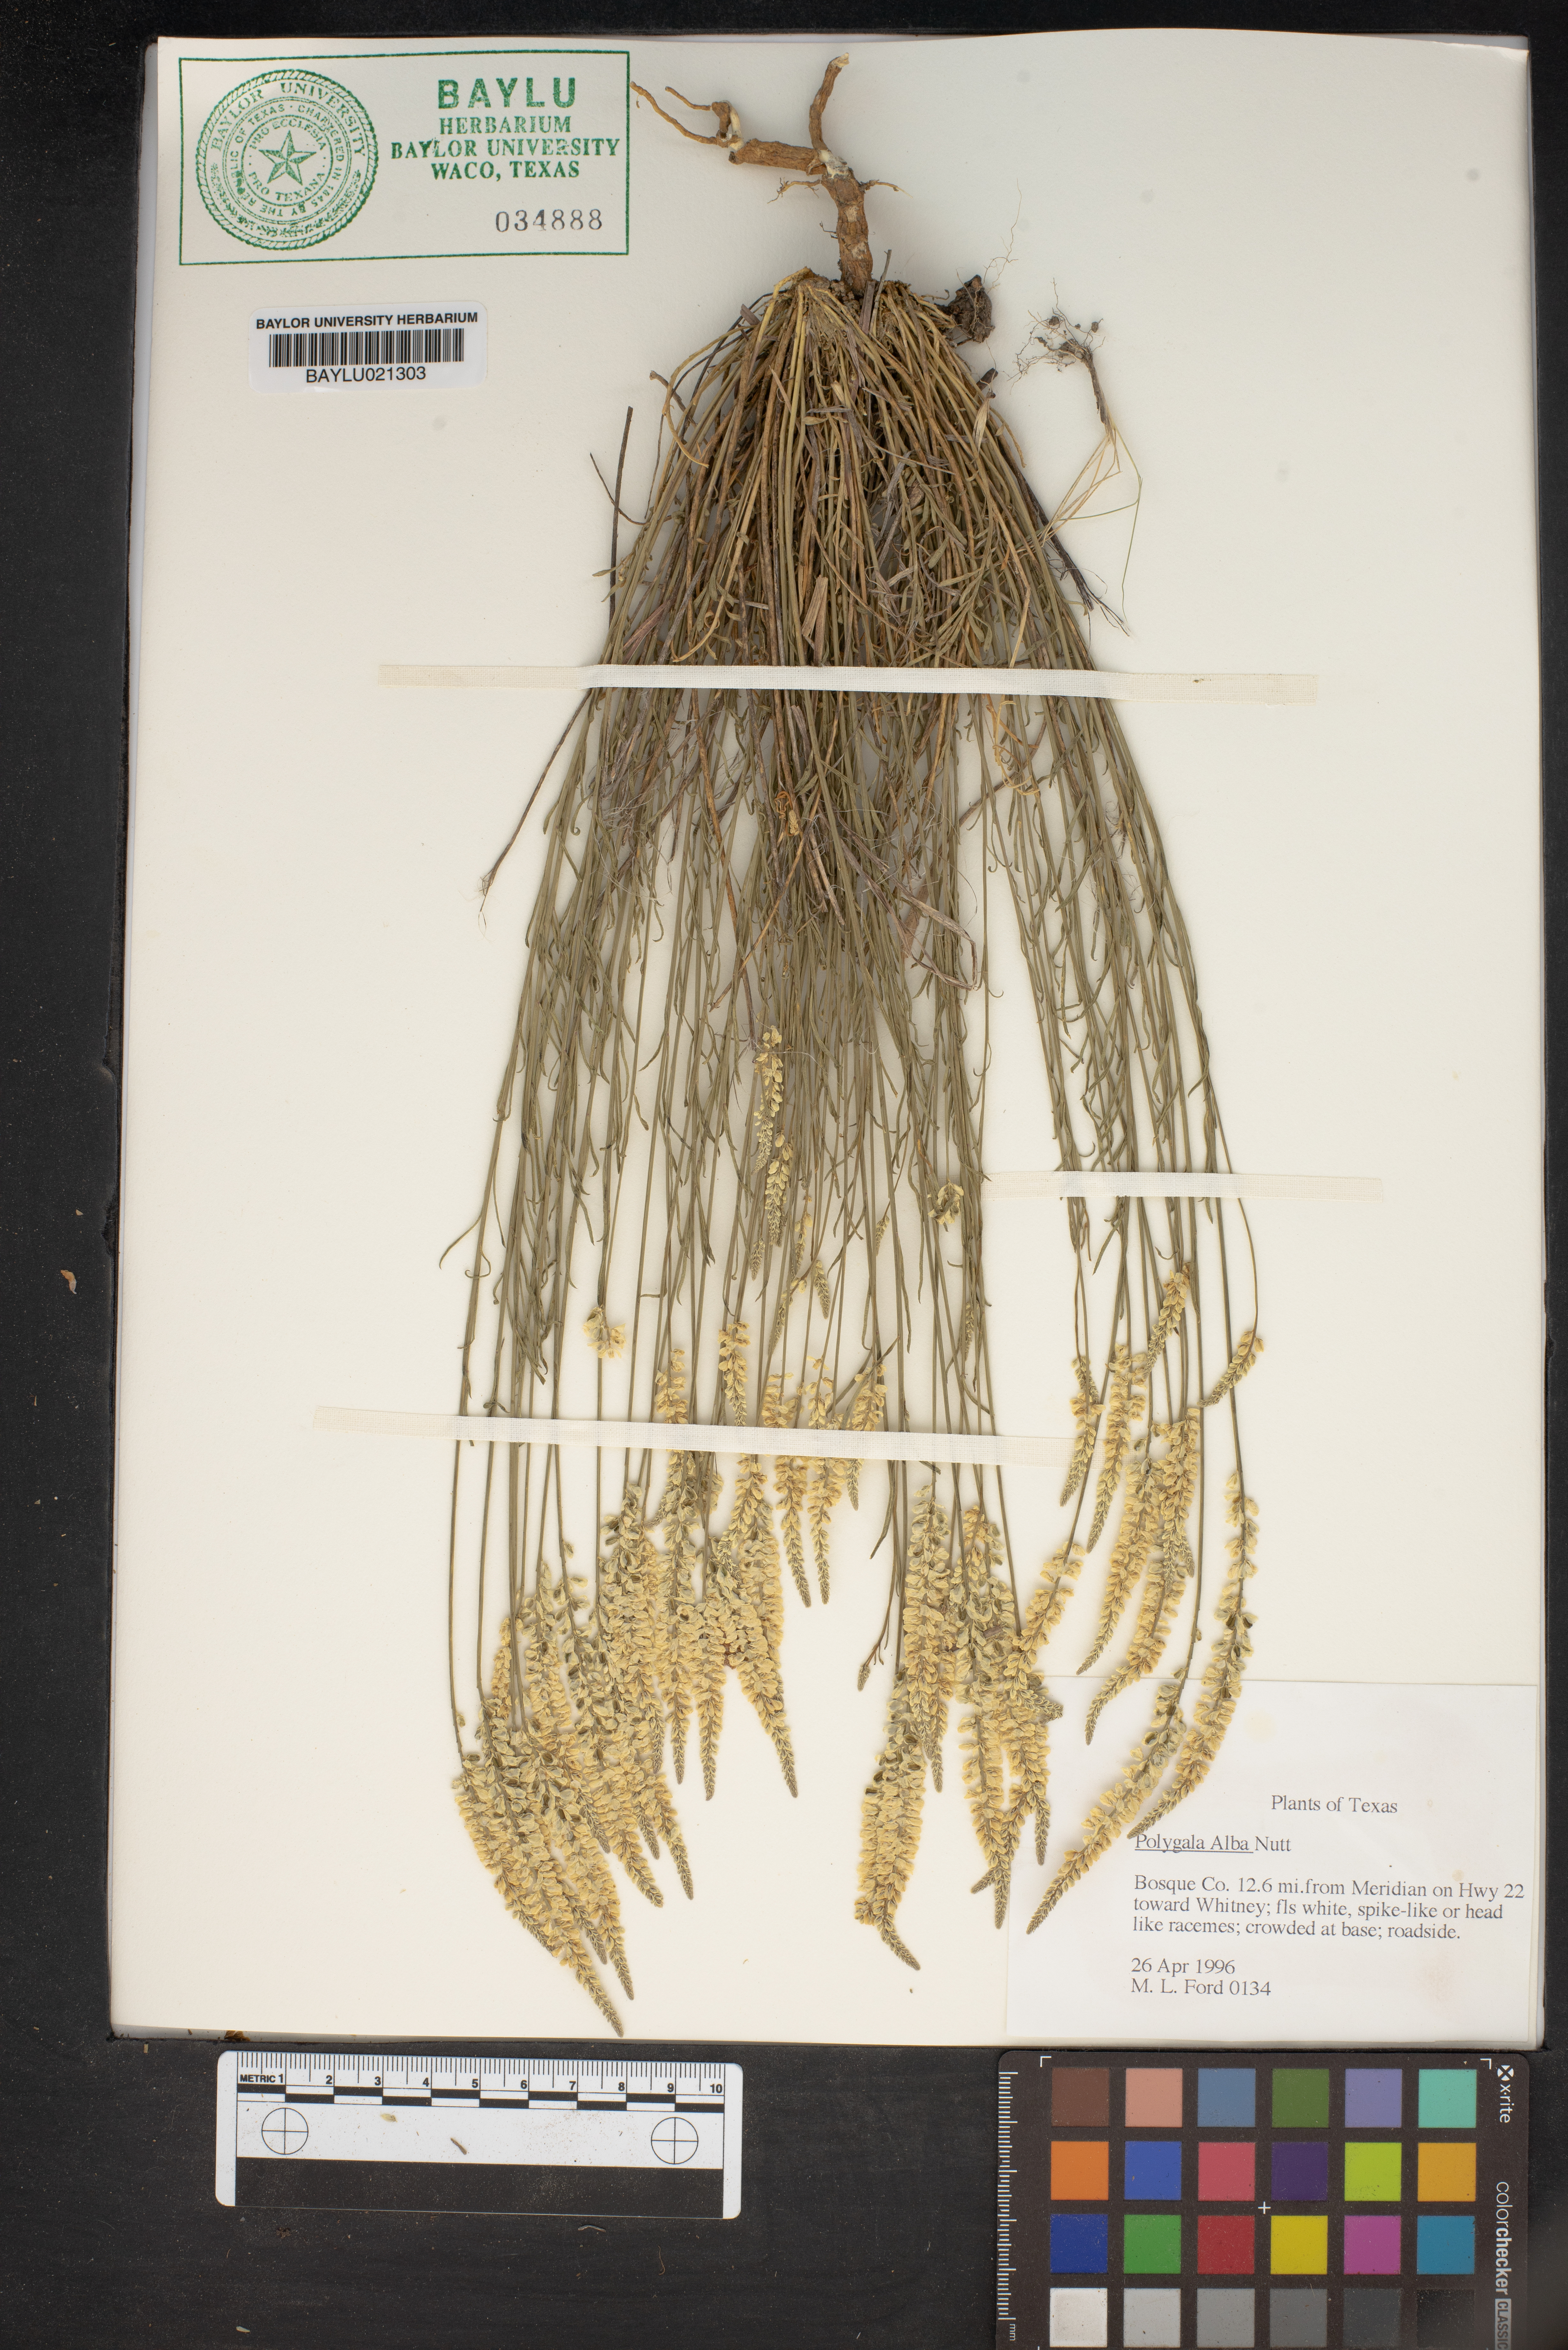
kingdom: Plantae
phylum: Tracheophyta
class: Magnoliopsida
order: Fabales
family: Polygalaceae
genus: Polygala
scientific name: Polygala alba
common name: White milkwort
